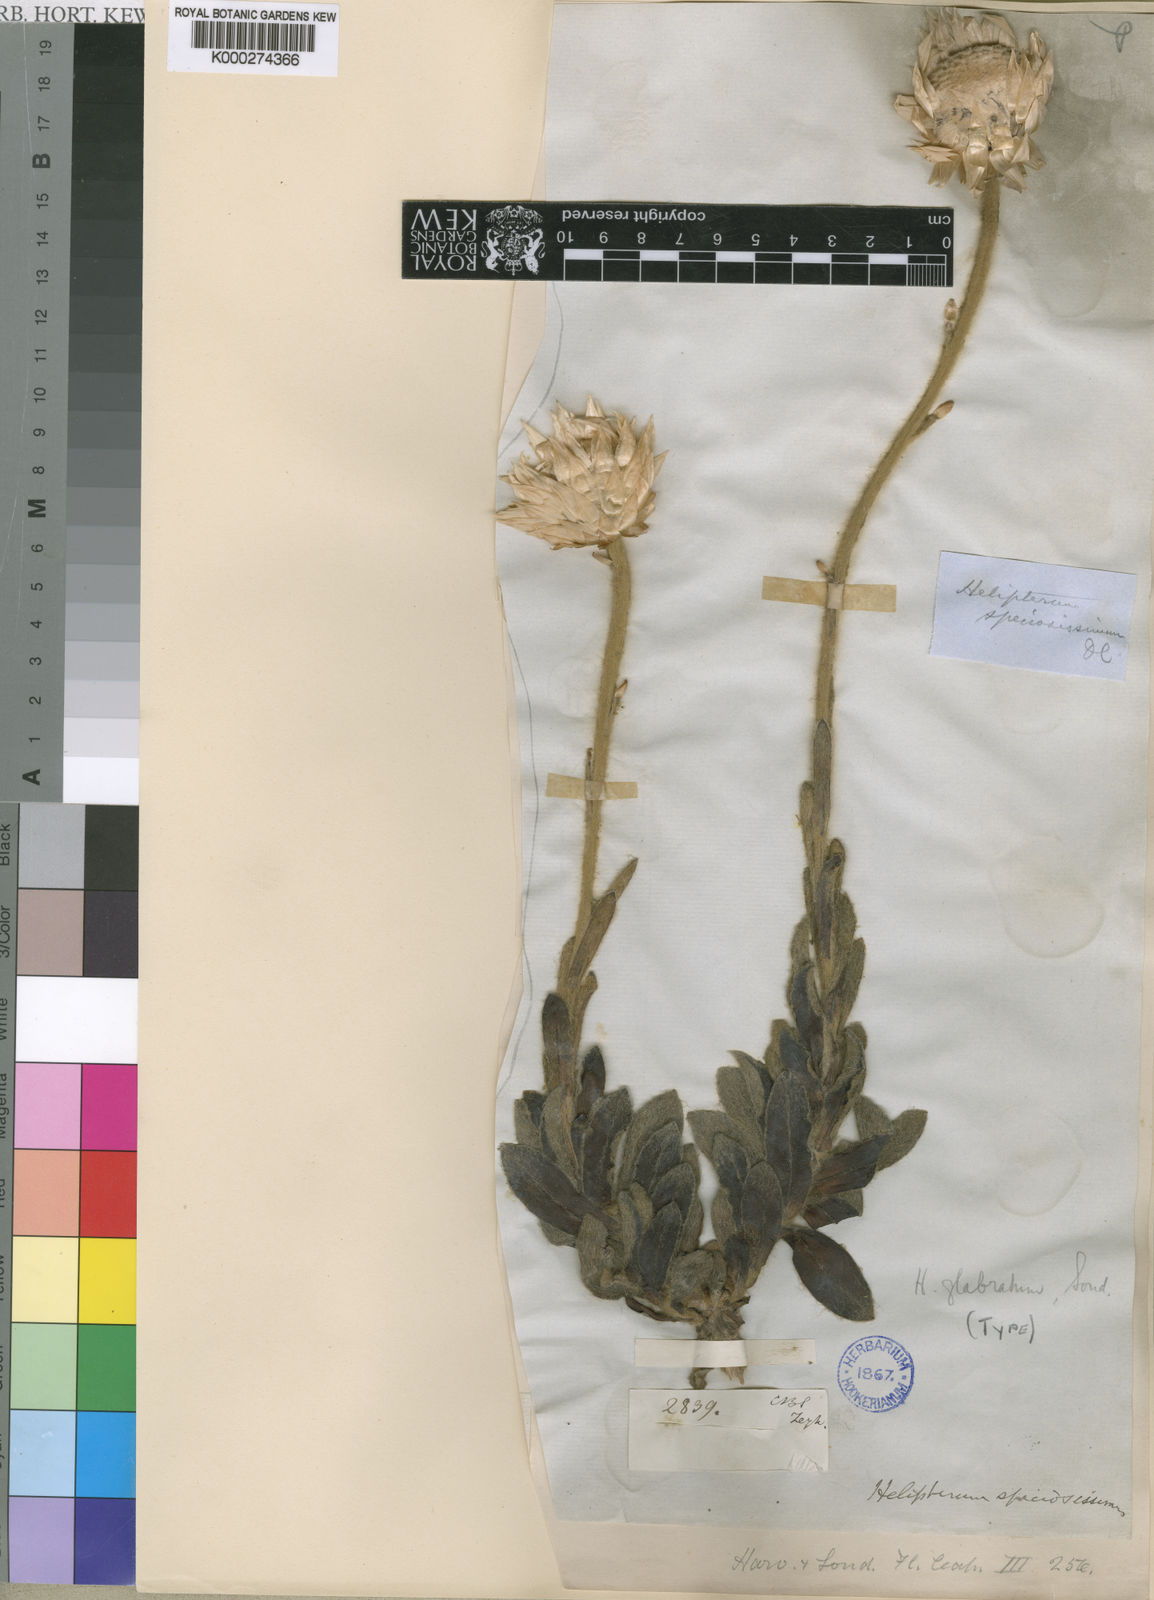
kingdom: Plantae
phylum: Tracheophyta
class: Magnoliopsida
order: Asterales
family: Asteraceae
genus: Syncarpha
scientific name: Syncarpha speciosissima
